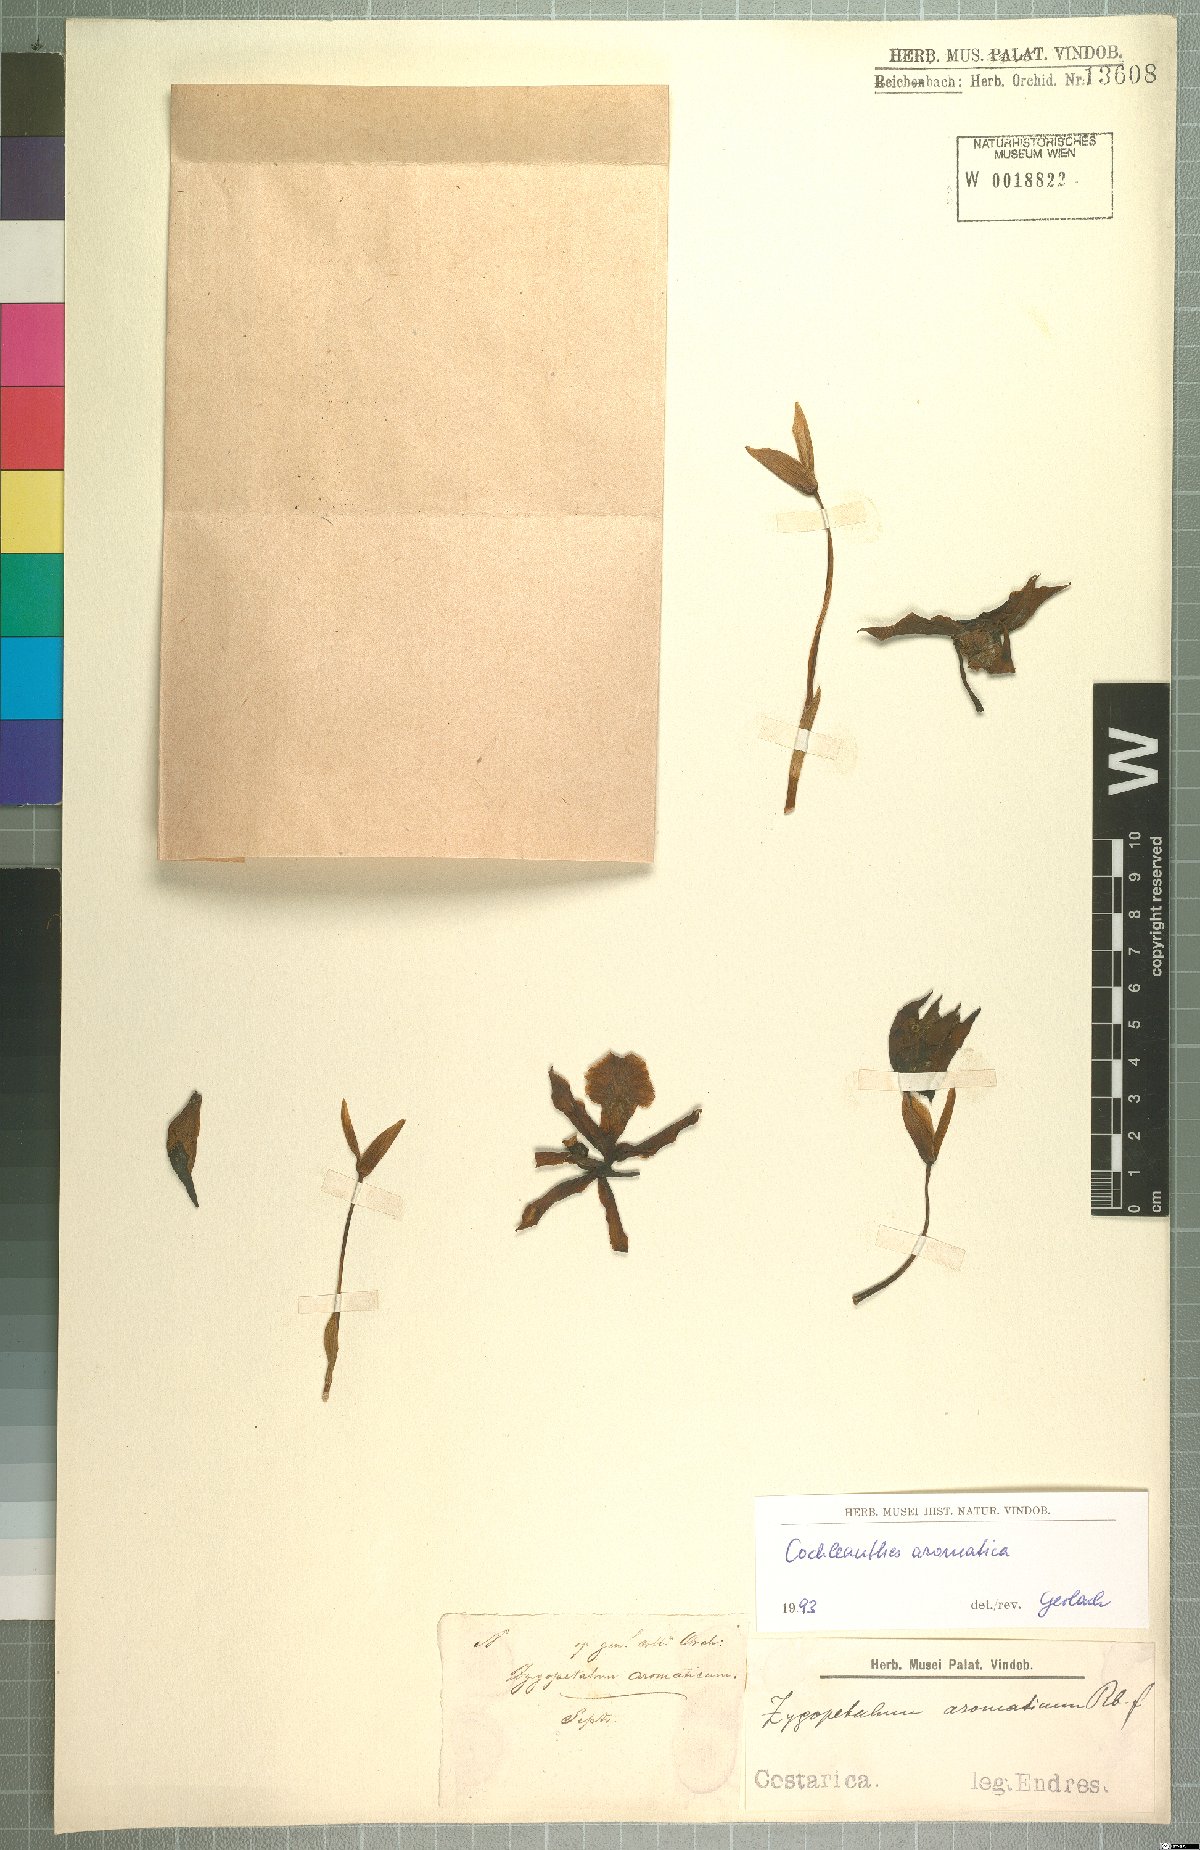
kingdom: Plantae
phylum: Tracheophyta
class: Liliopsida
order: Asparagales
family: Orchidaceae
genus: Cochleanthes
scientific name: Cochleanthes aromatica
